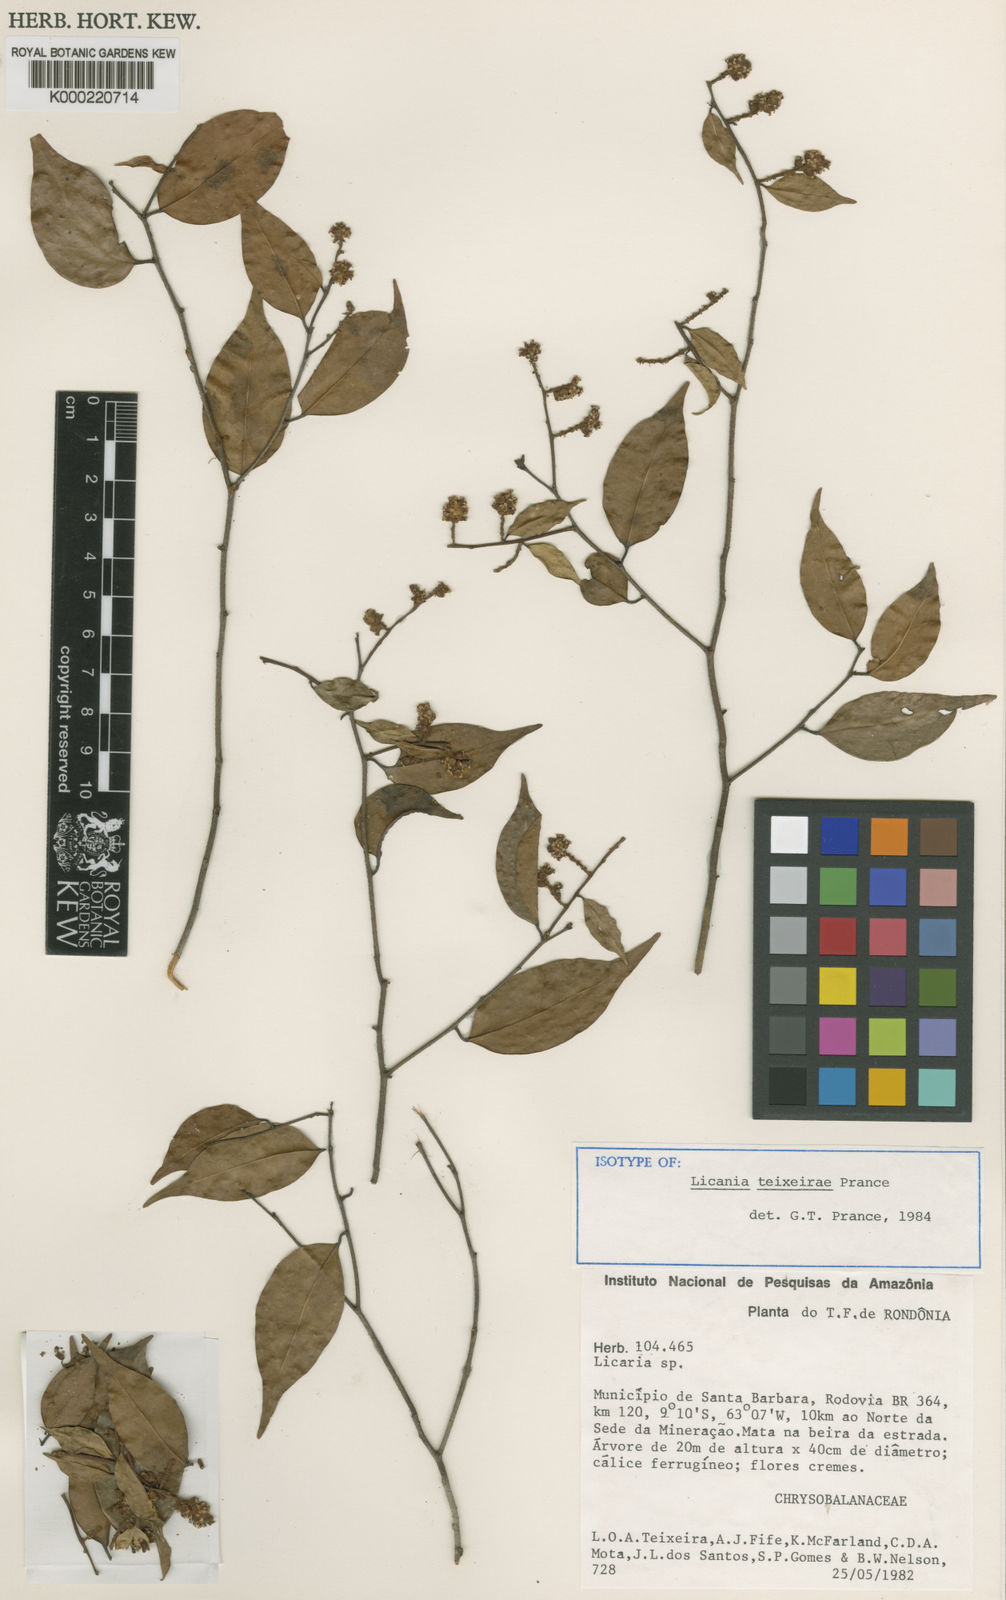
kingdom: Plantae
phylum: Tracheophyta
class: Magnoliopsida
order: Malpighiales
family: Chrysobalanaceae
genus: Licania
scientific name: Licania teixeirae
